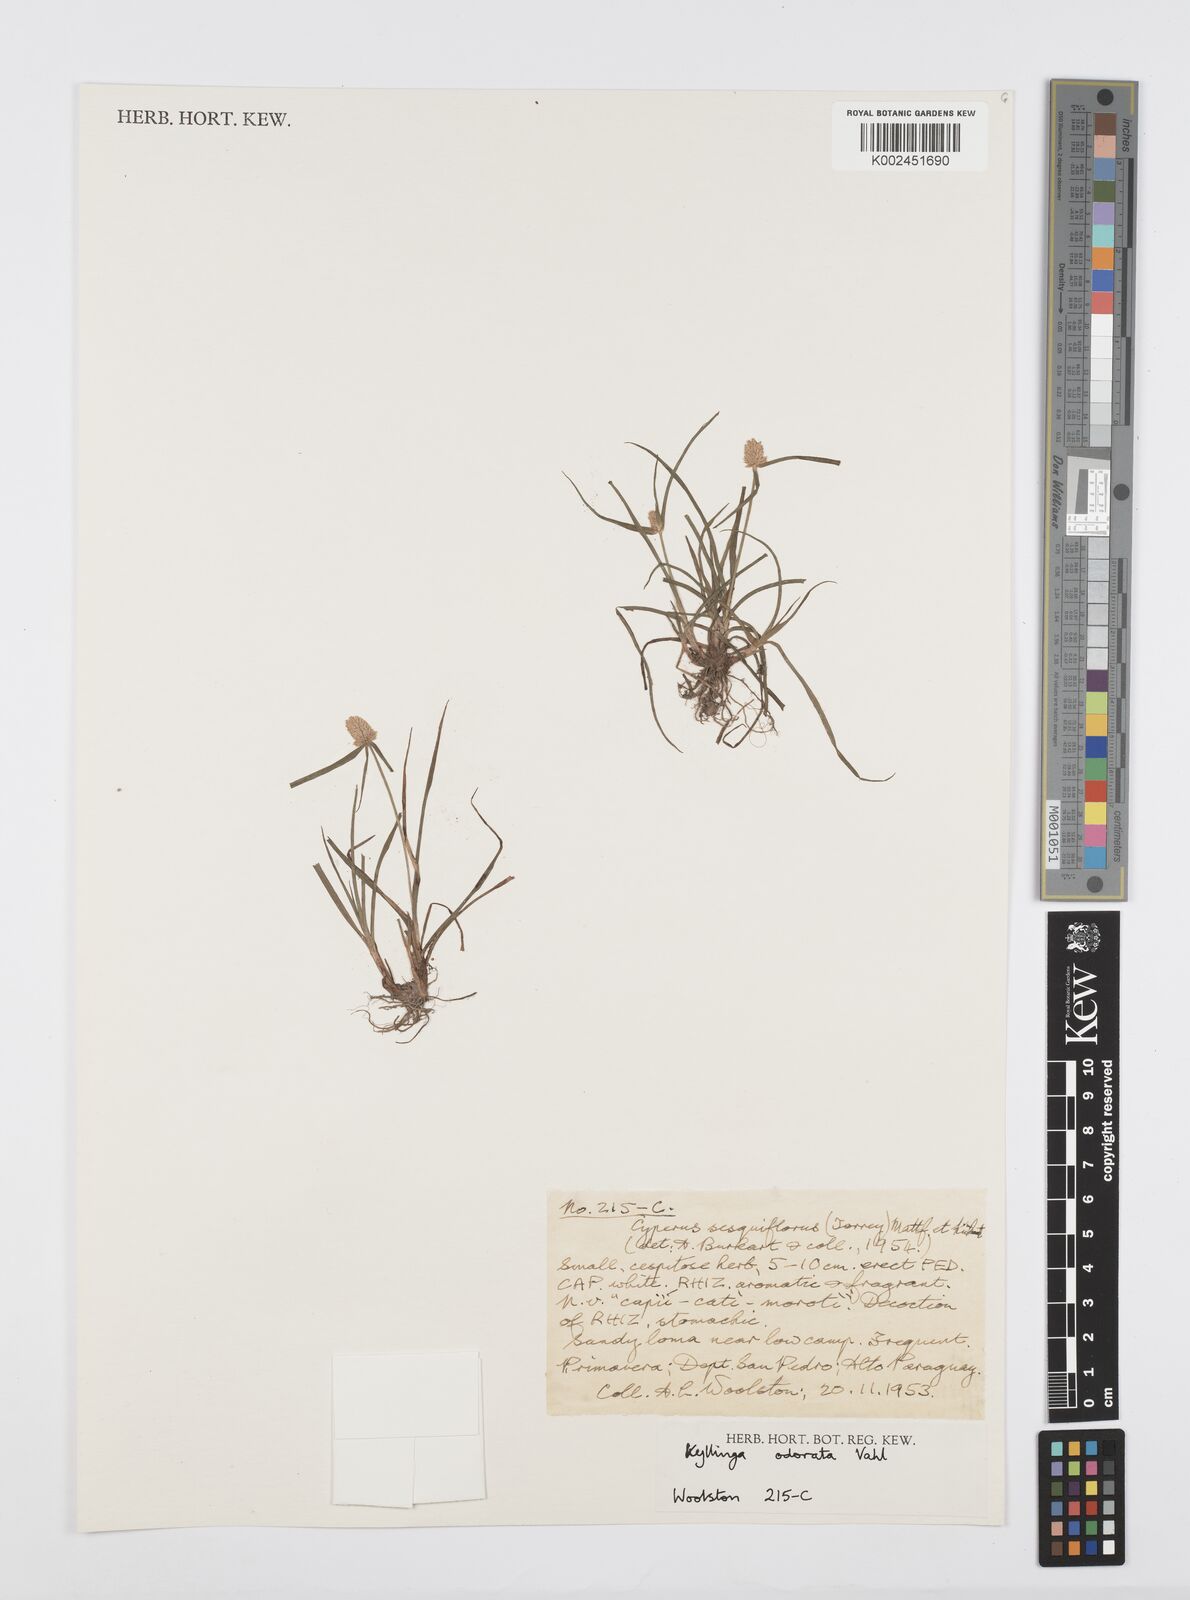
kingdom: Plantae
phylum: Tracheophyta
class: Liliopsida
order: Poales
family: Cyperaceae
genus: Cyperus
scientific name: Cyperus
